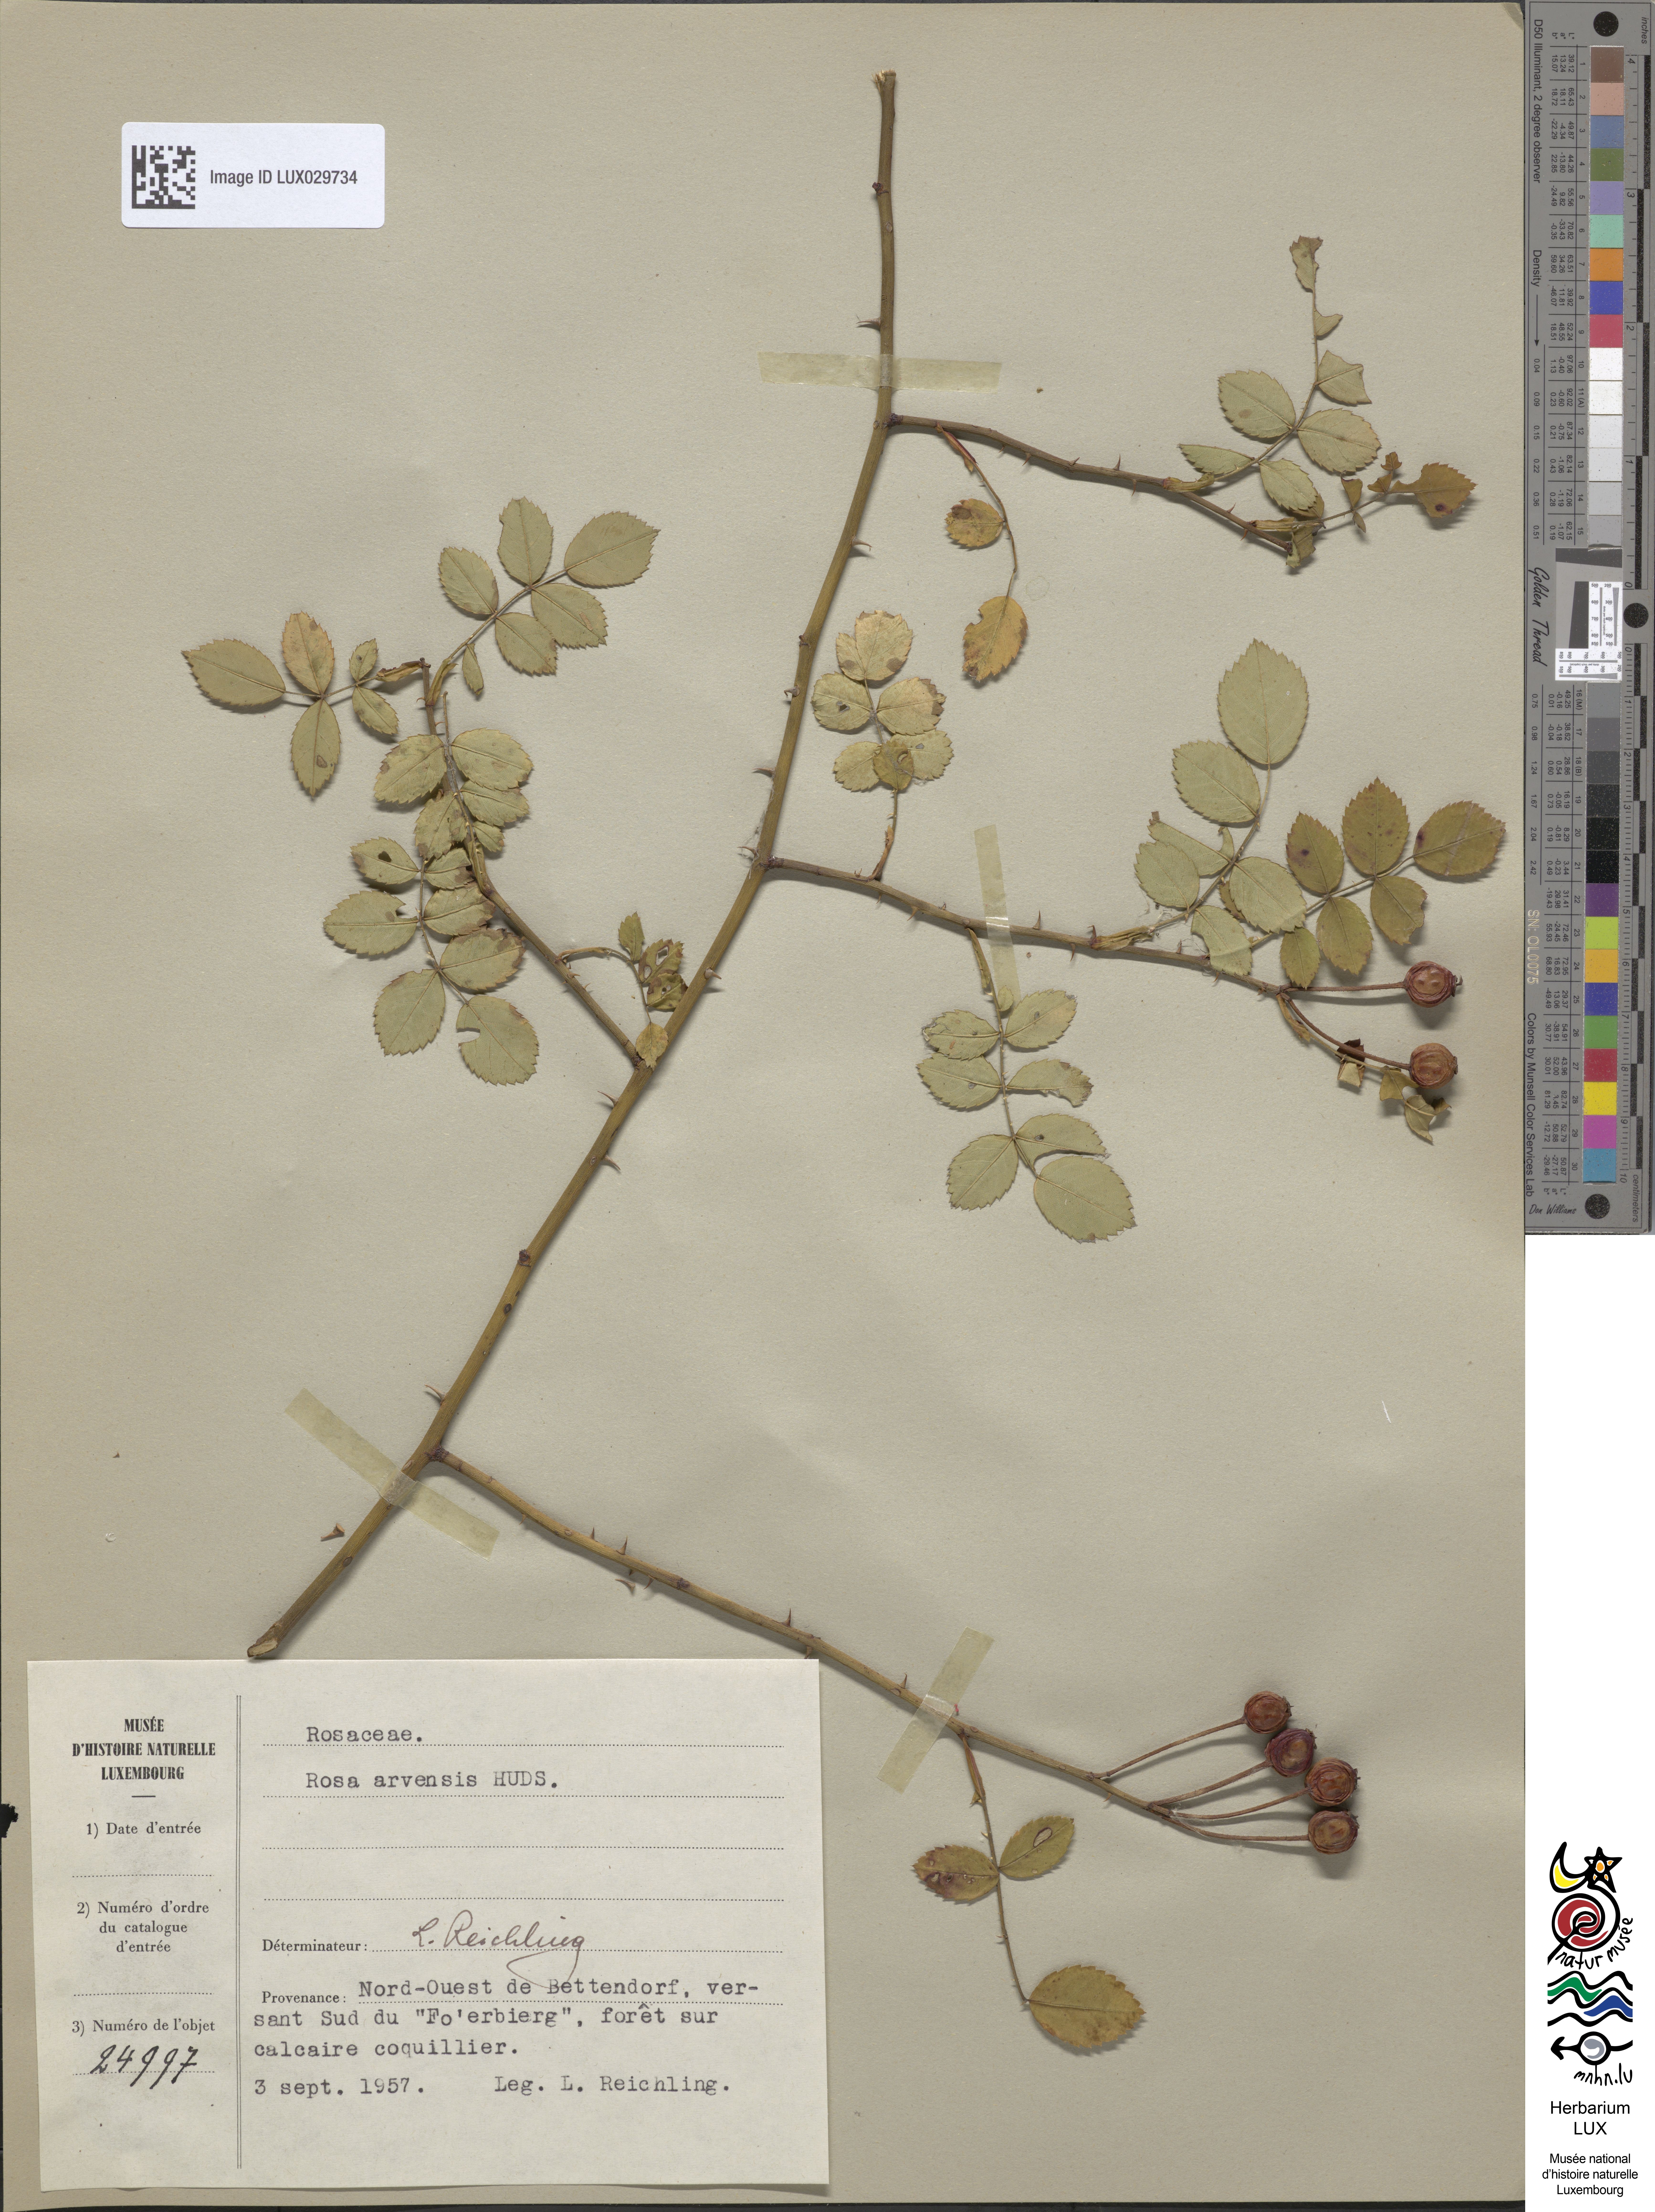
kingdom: Plantae
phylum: Tracheophyta
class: Magnoliopsida
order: Rosales
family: Rosaceae
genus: Rosa
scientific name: Rosa arvensis
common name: Field rose
